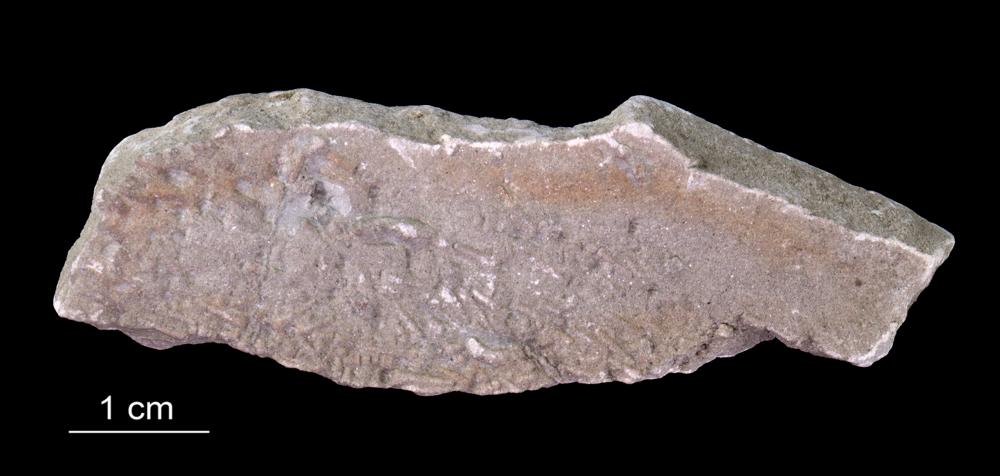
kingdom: Animalia
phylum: Annelida
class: Polychaeta
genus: Volborthella
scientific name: Volborthella tenuis
